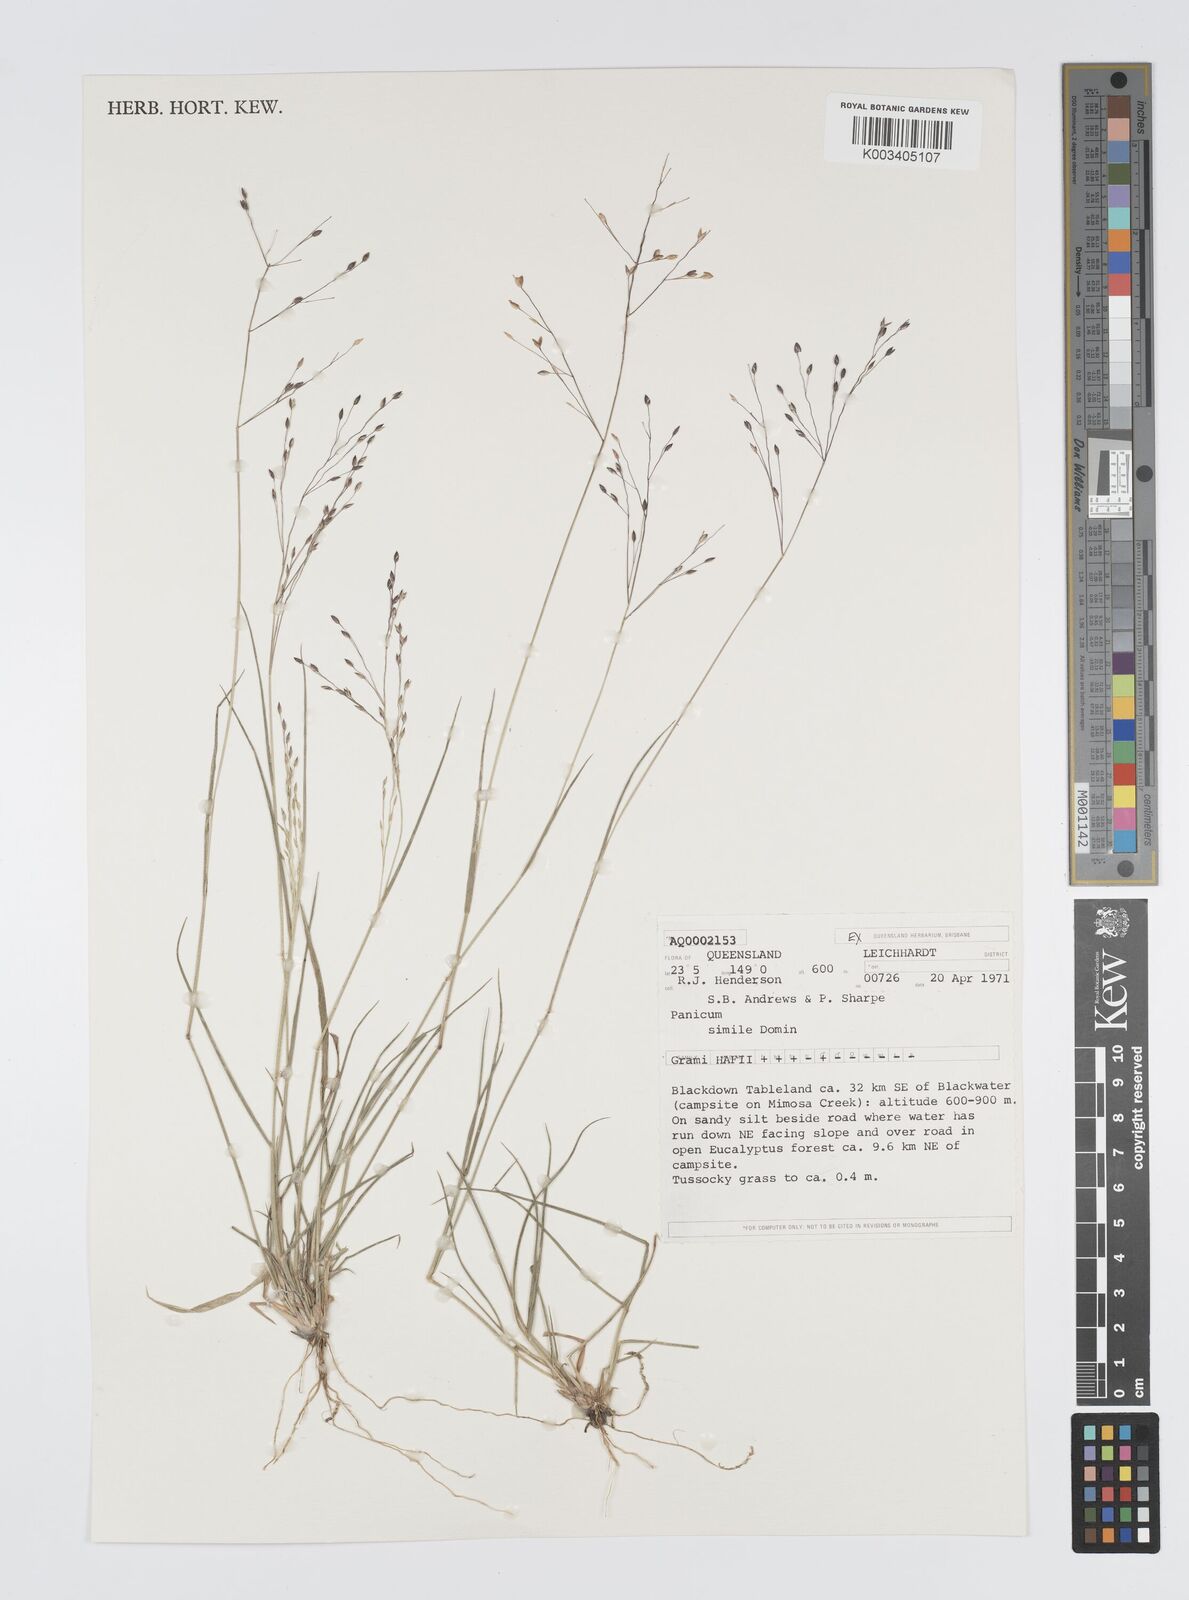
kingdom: Plantae
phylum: Tracheophyta
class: Liliopsida
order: Poales
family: Poaceae
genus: Panicum
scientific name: Panicum simile
